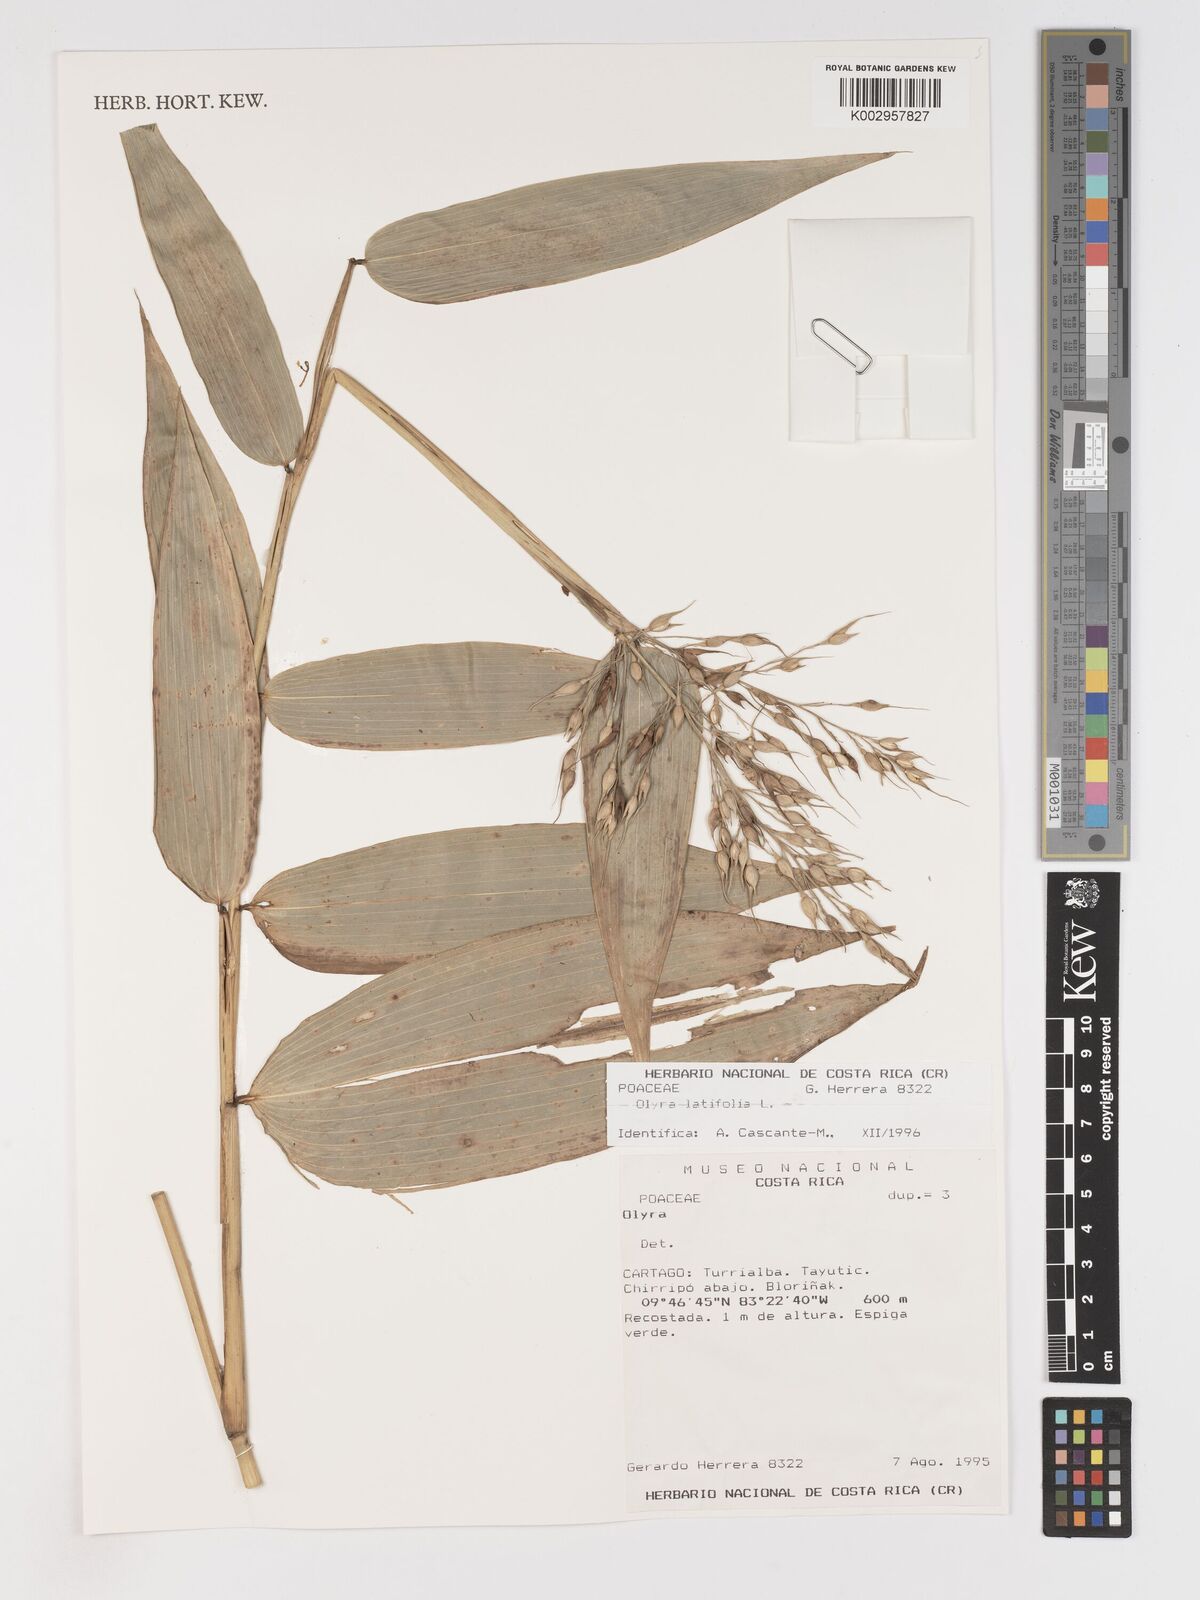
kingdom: Plantae
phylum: Tracheophyta
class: Liliopsida
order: Poales
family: Poaceae
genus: Olyra
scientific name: Olyra latifolia
